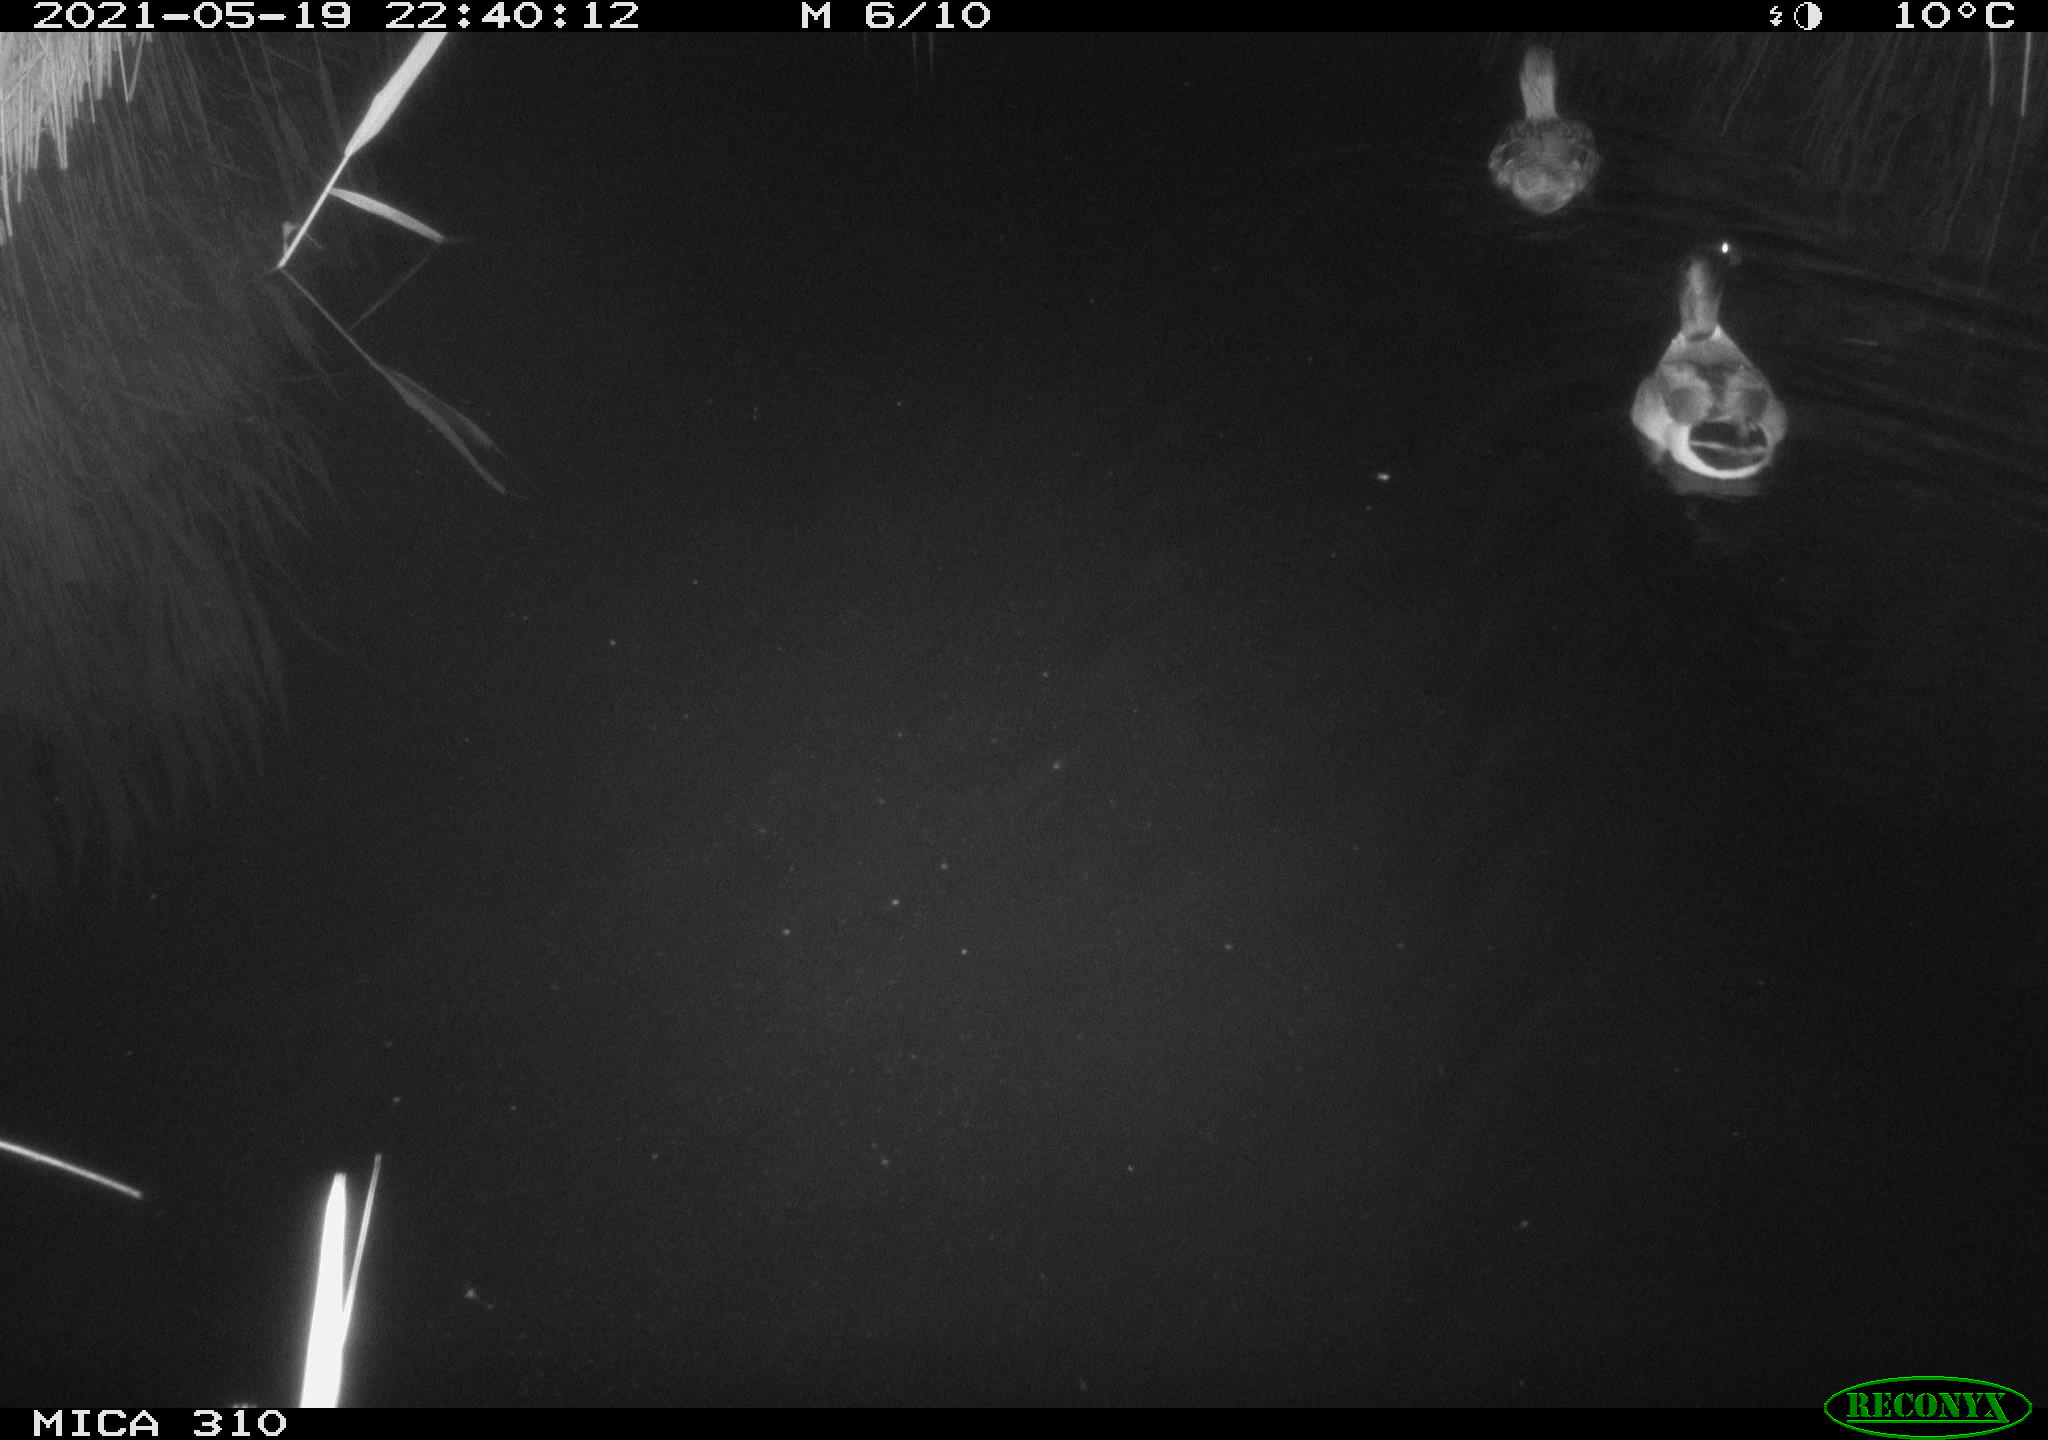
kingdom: Animalia
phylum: Chordata
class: Aves
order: Anseriformes
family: Anatidae
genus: Anas
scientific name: Anas platyrhynchos
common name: Mallard
